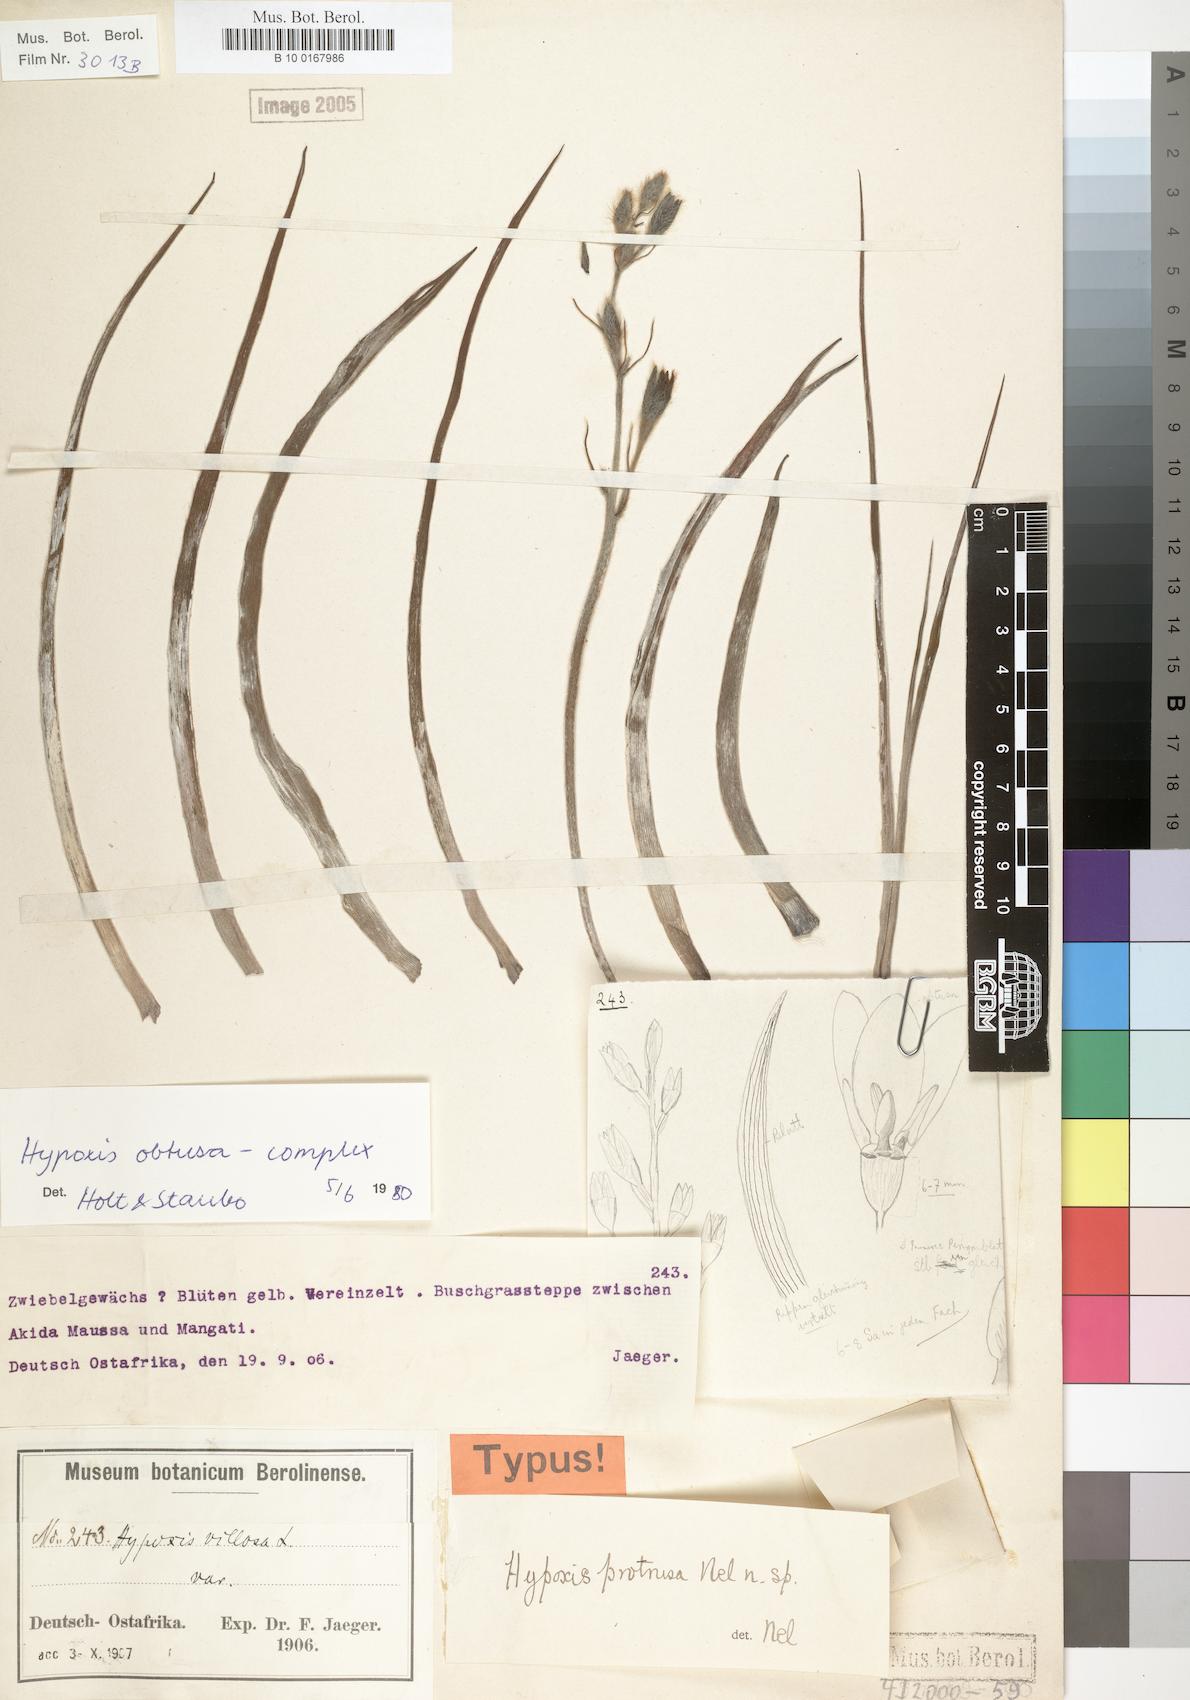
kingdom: Plantae
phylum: Tracheophyta
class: Liliopsida
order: Asparagales
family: Hypoxidaceae
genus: Hypoxis
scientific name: Hypoxis
